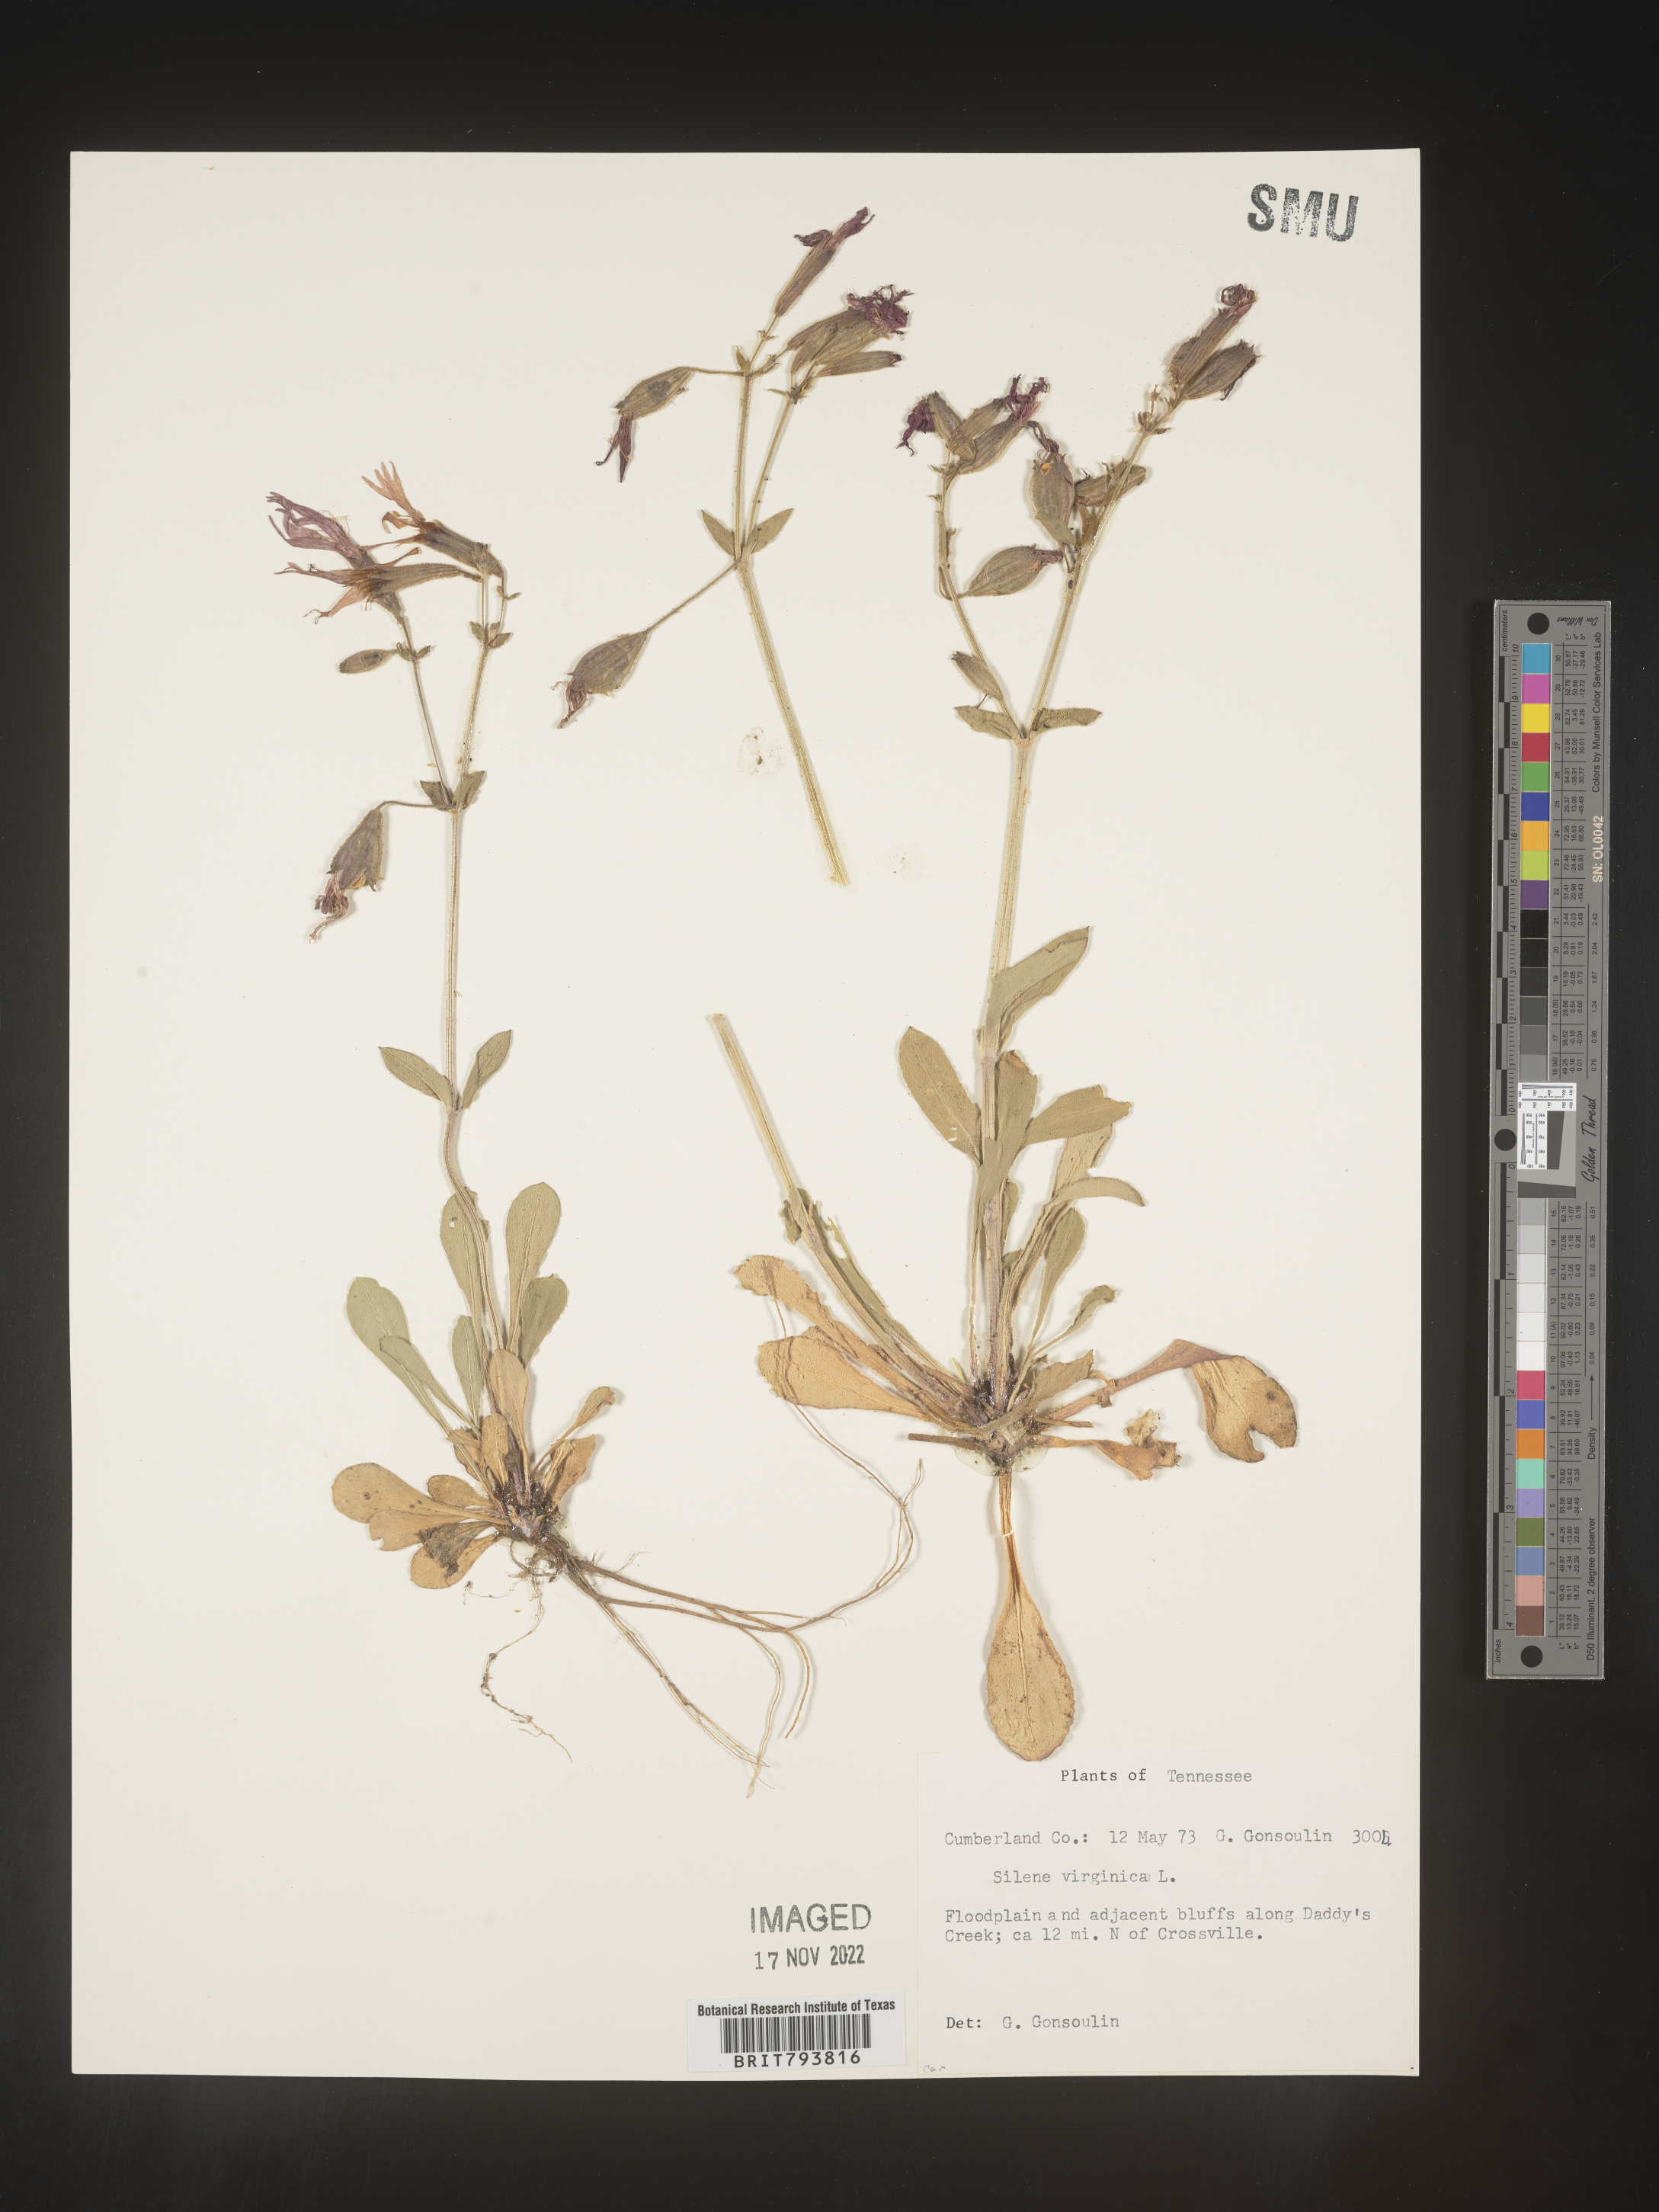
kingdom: Plantae
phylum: Tracheophyta
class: Magnoliopsida
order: Caryophyllales
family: Caryophyllaceae
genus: Silene
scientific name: Silene virginica
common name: Fire-pink
